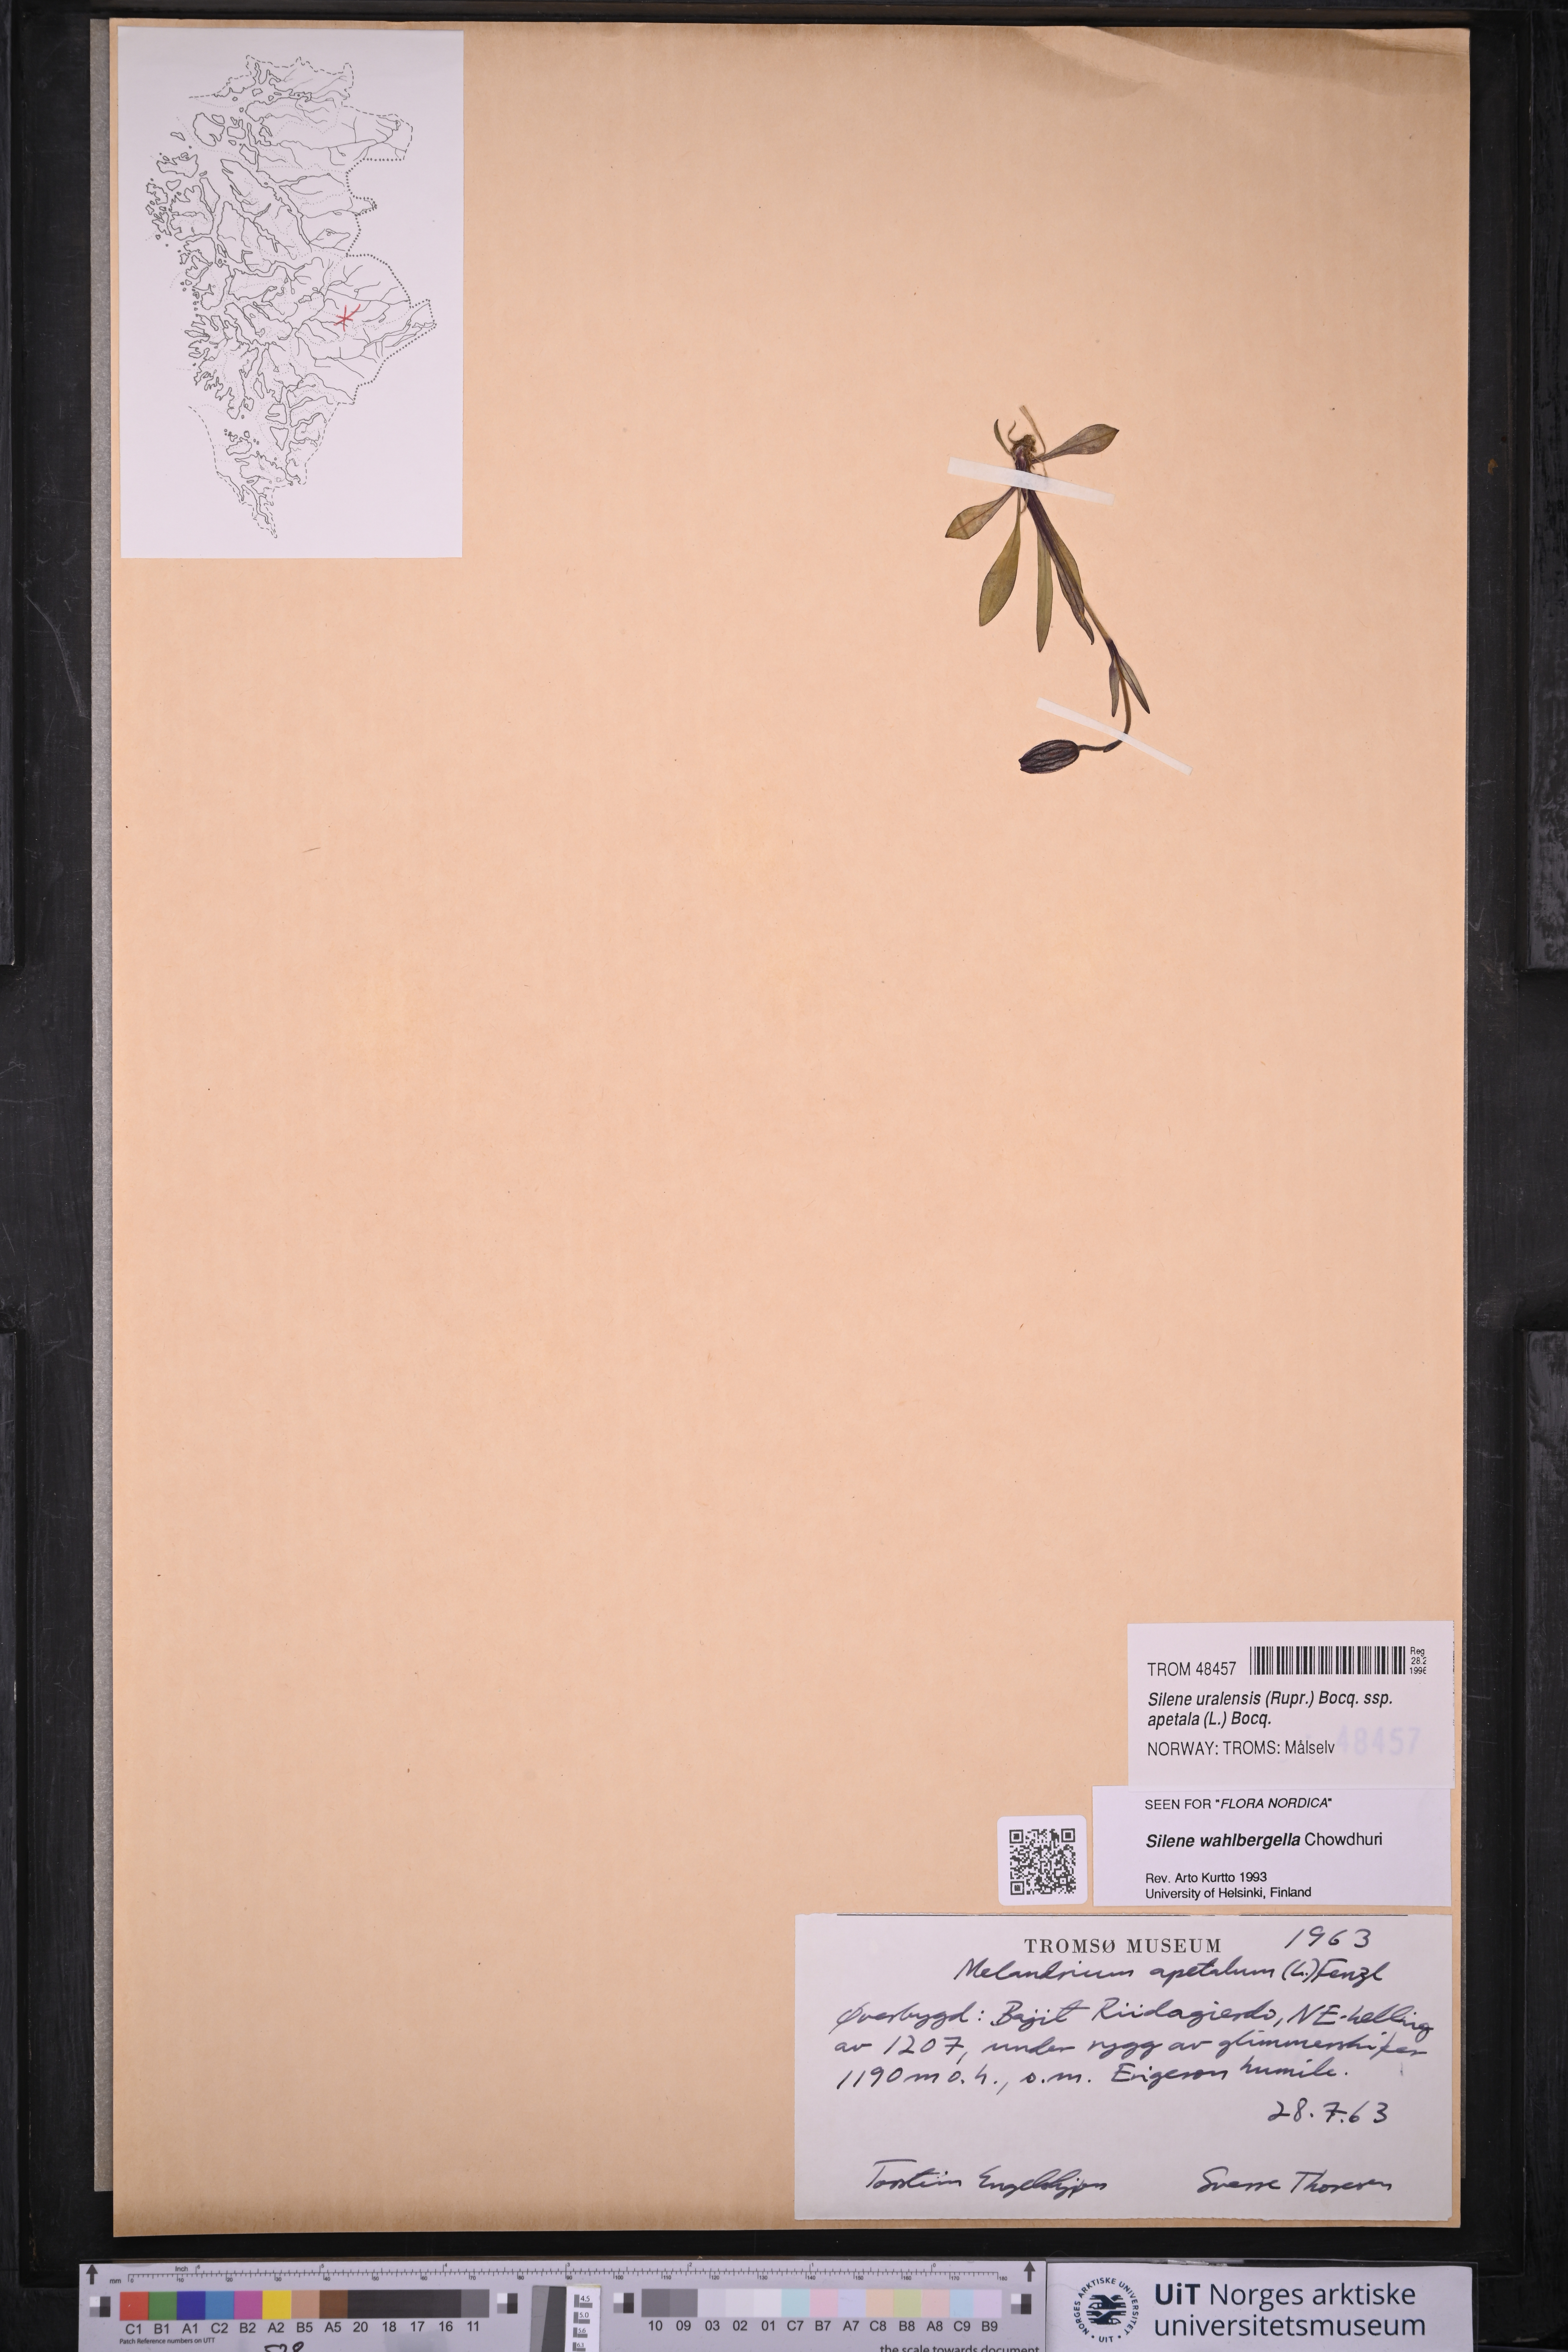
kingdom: Plantae
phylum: Tracheophyta
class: Magnoliopsida
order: Caryophyllales
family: Caryophyllaceae
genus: Silene
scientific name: Silene wahlbergella
